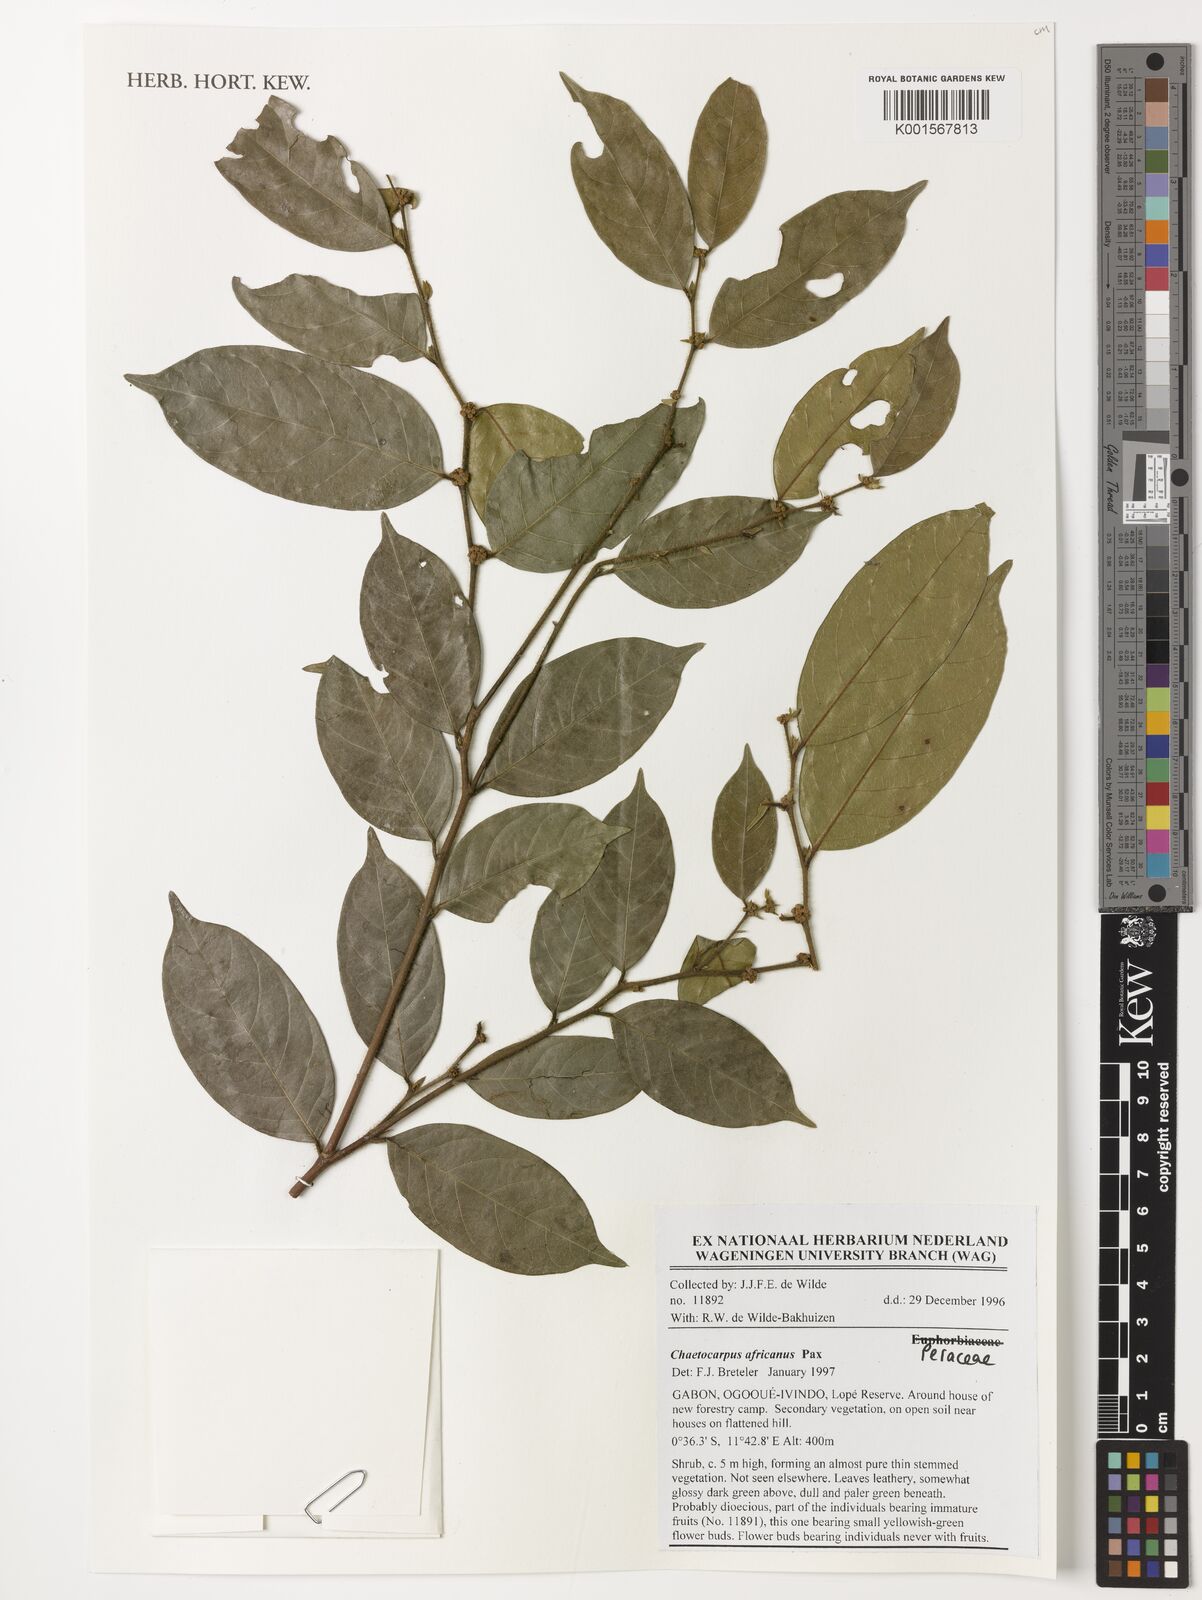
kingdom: Plantae
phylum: Tracheophyta
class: Magnoliopsida
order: Malpighiales
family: Peraceae
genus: Chaetocarpus
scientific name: Chaetocarpus africanus
